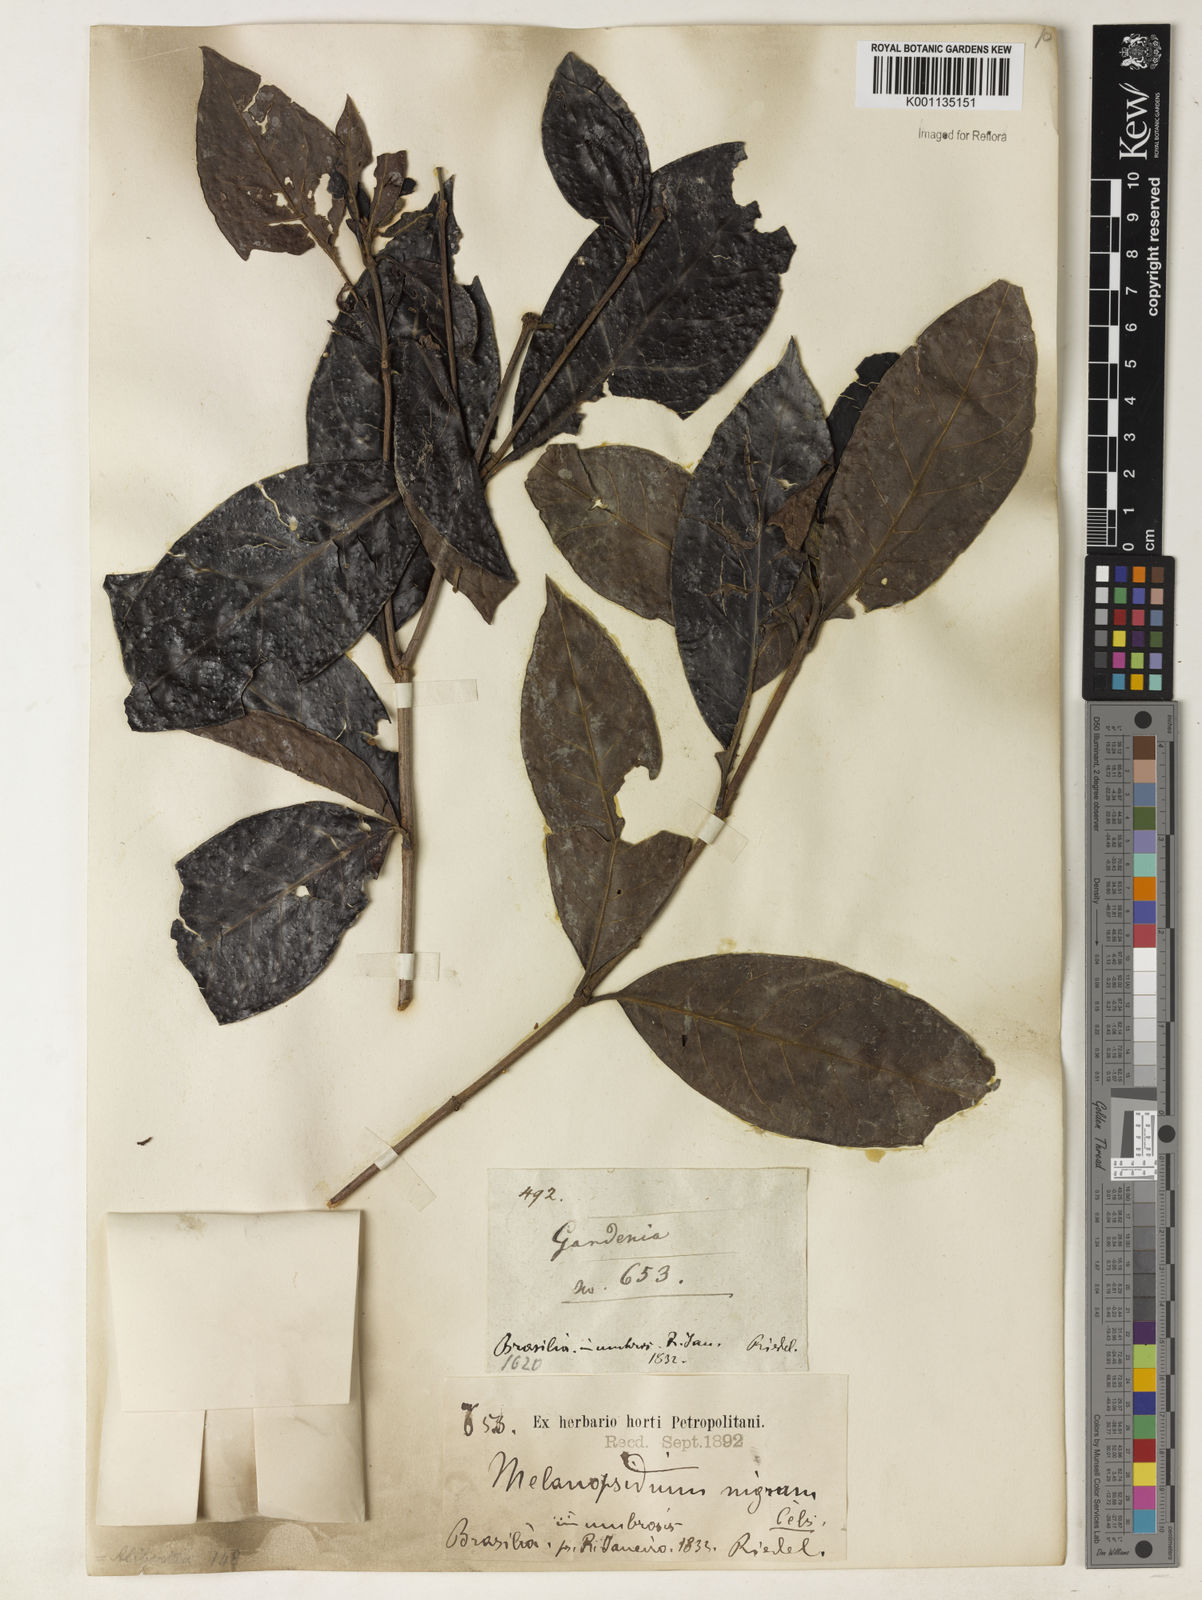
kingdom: Plantae
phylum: Tracheophyta
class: Magnoliopsida
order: Gentianales
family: Rubiaceae
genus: Melanopsidium
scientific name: Melanopsidium nigrum
